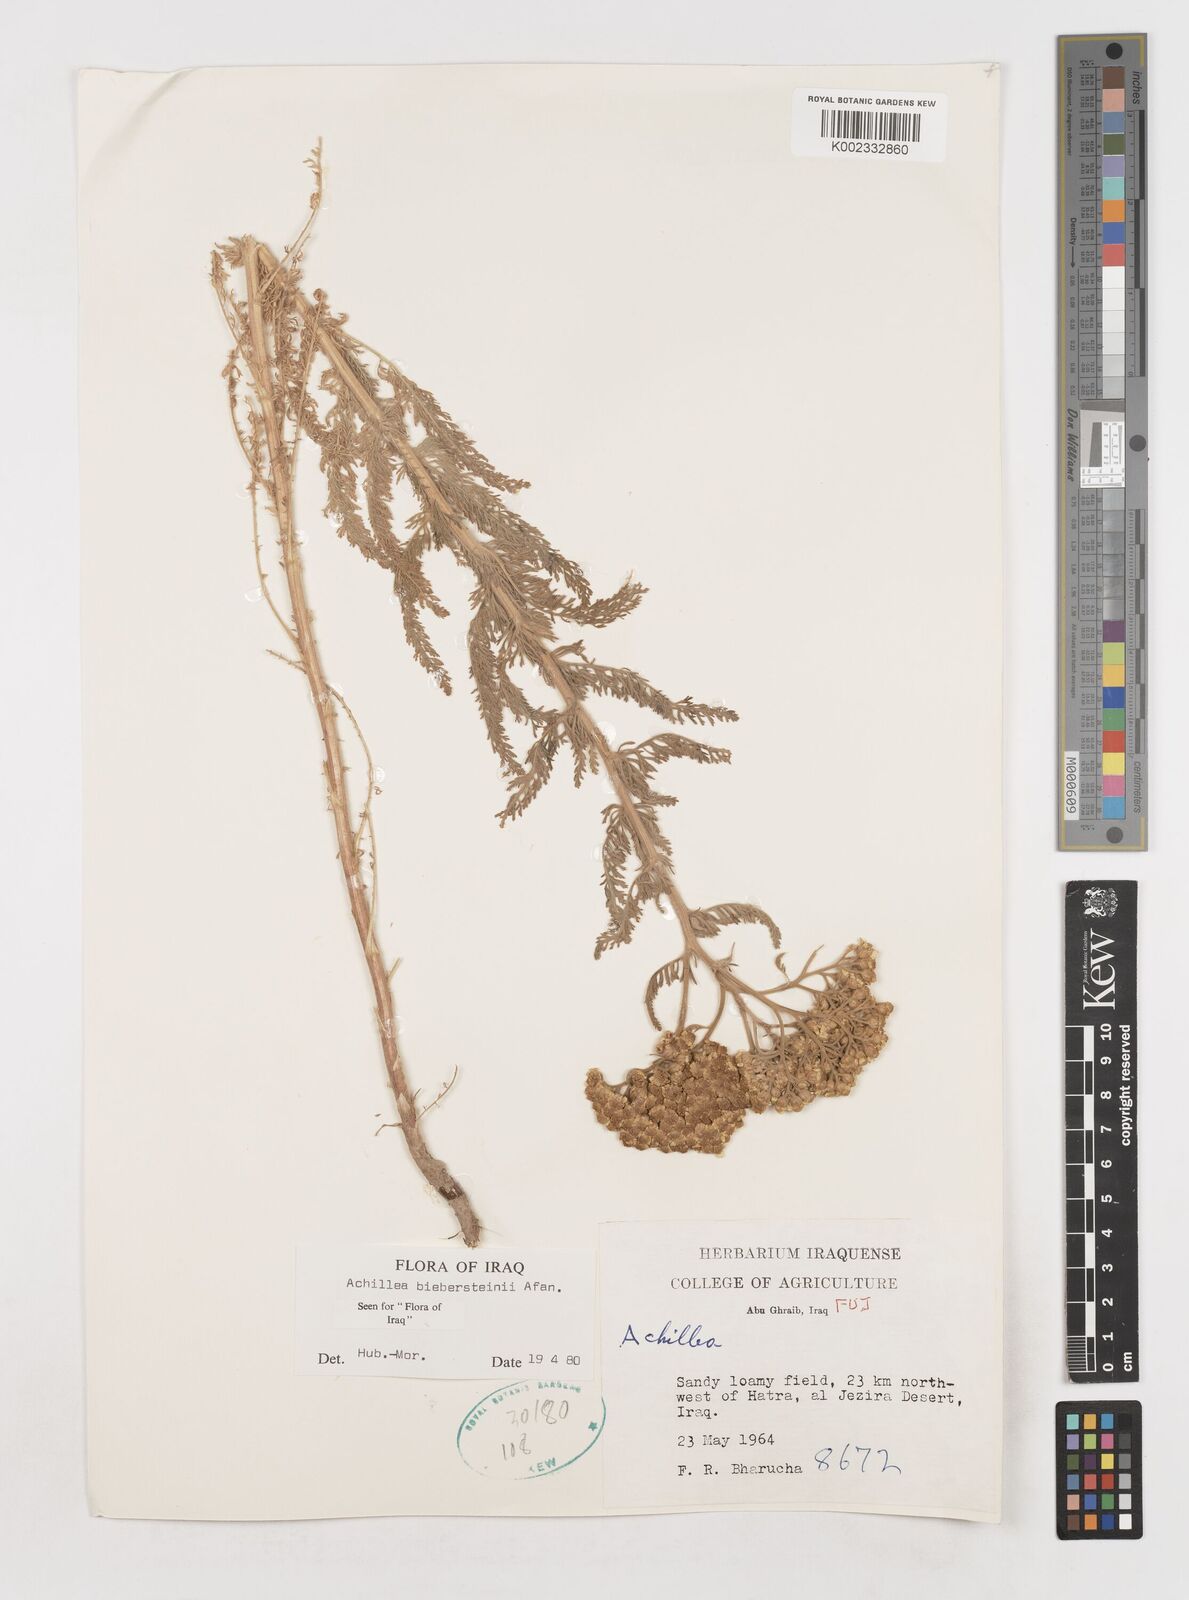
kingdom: Plantae
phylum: Tracheophyta
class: Magnoliopsida
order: Asterales
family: Asteraceae
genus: Achillea
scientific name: Achillea arabica
